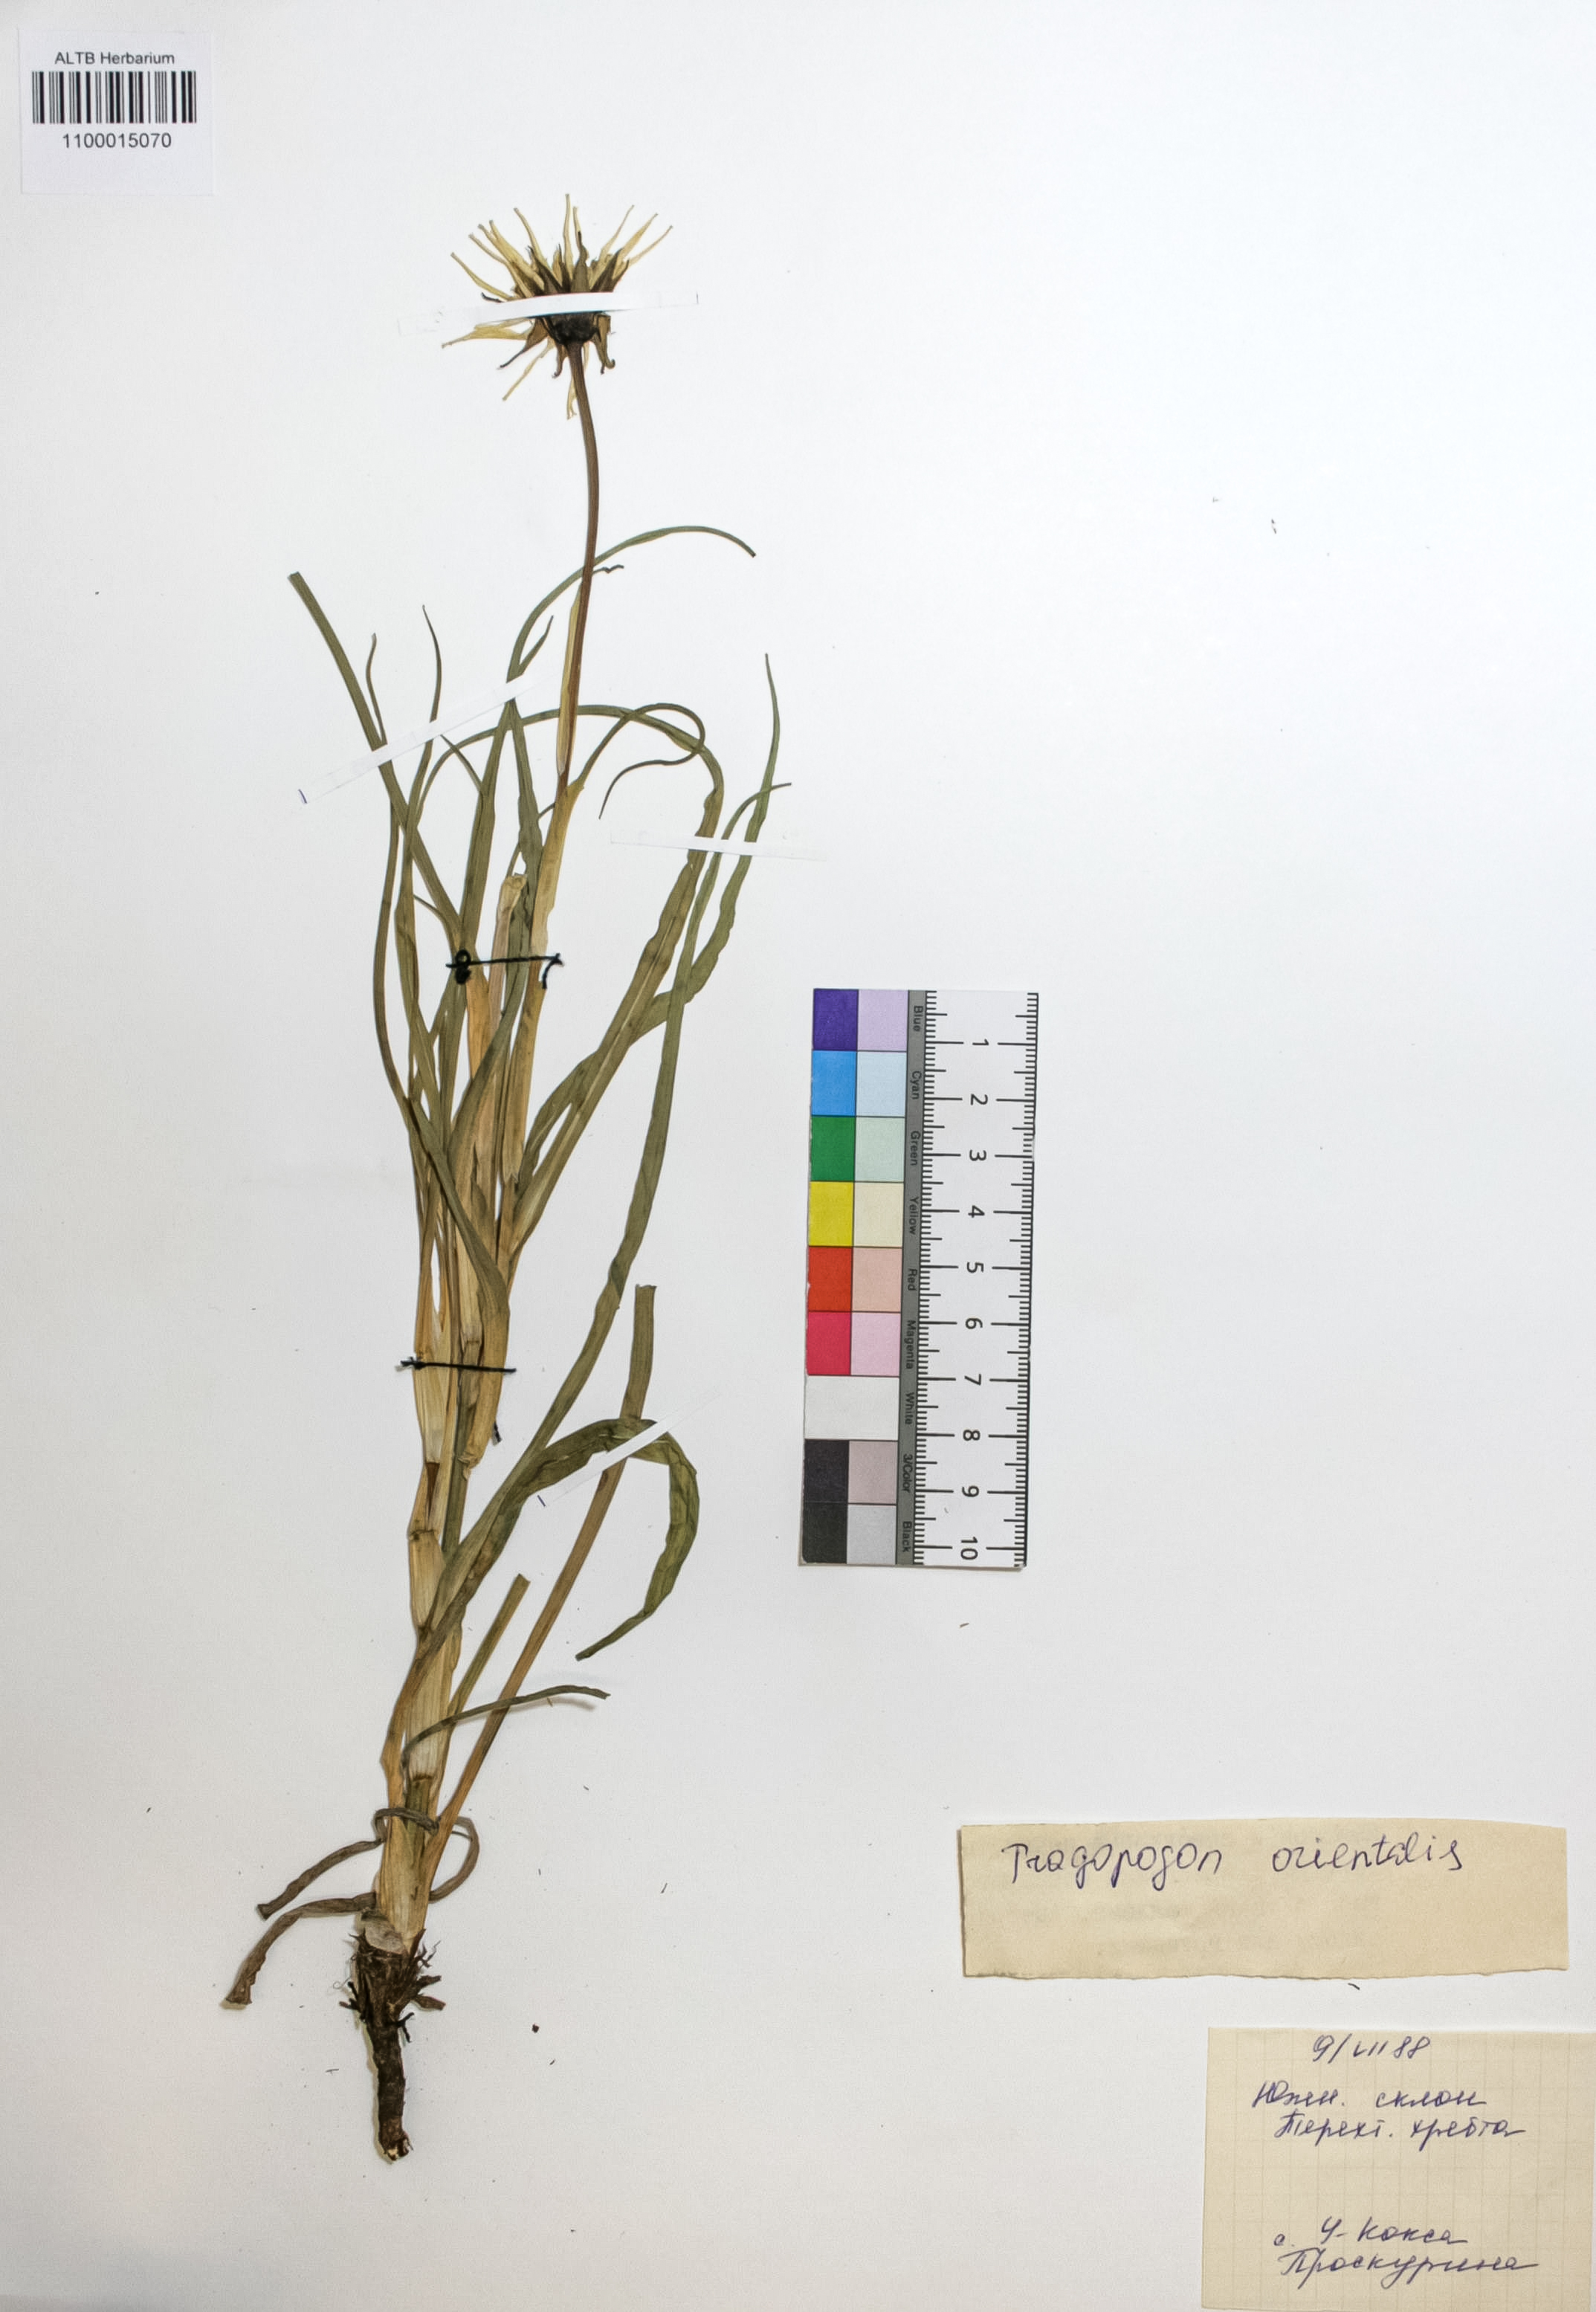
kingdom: Plantae
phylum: Tracheophyta
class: Magnoliopsida
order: Asterales
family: Asteraceae
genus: Tragopogon
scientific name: Tragopogon orientalis
